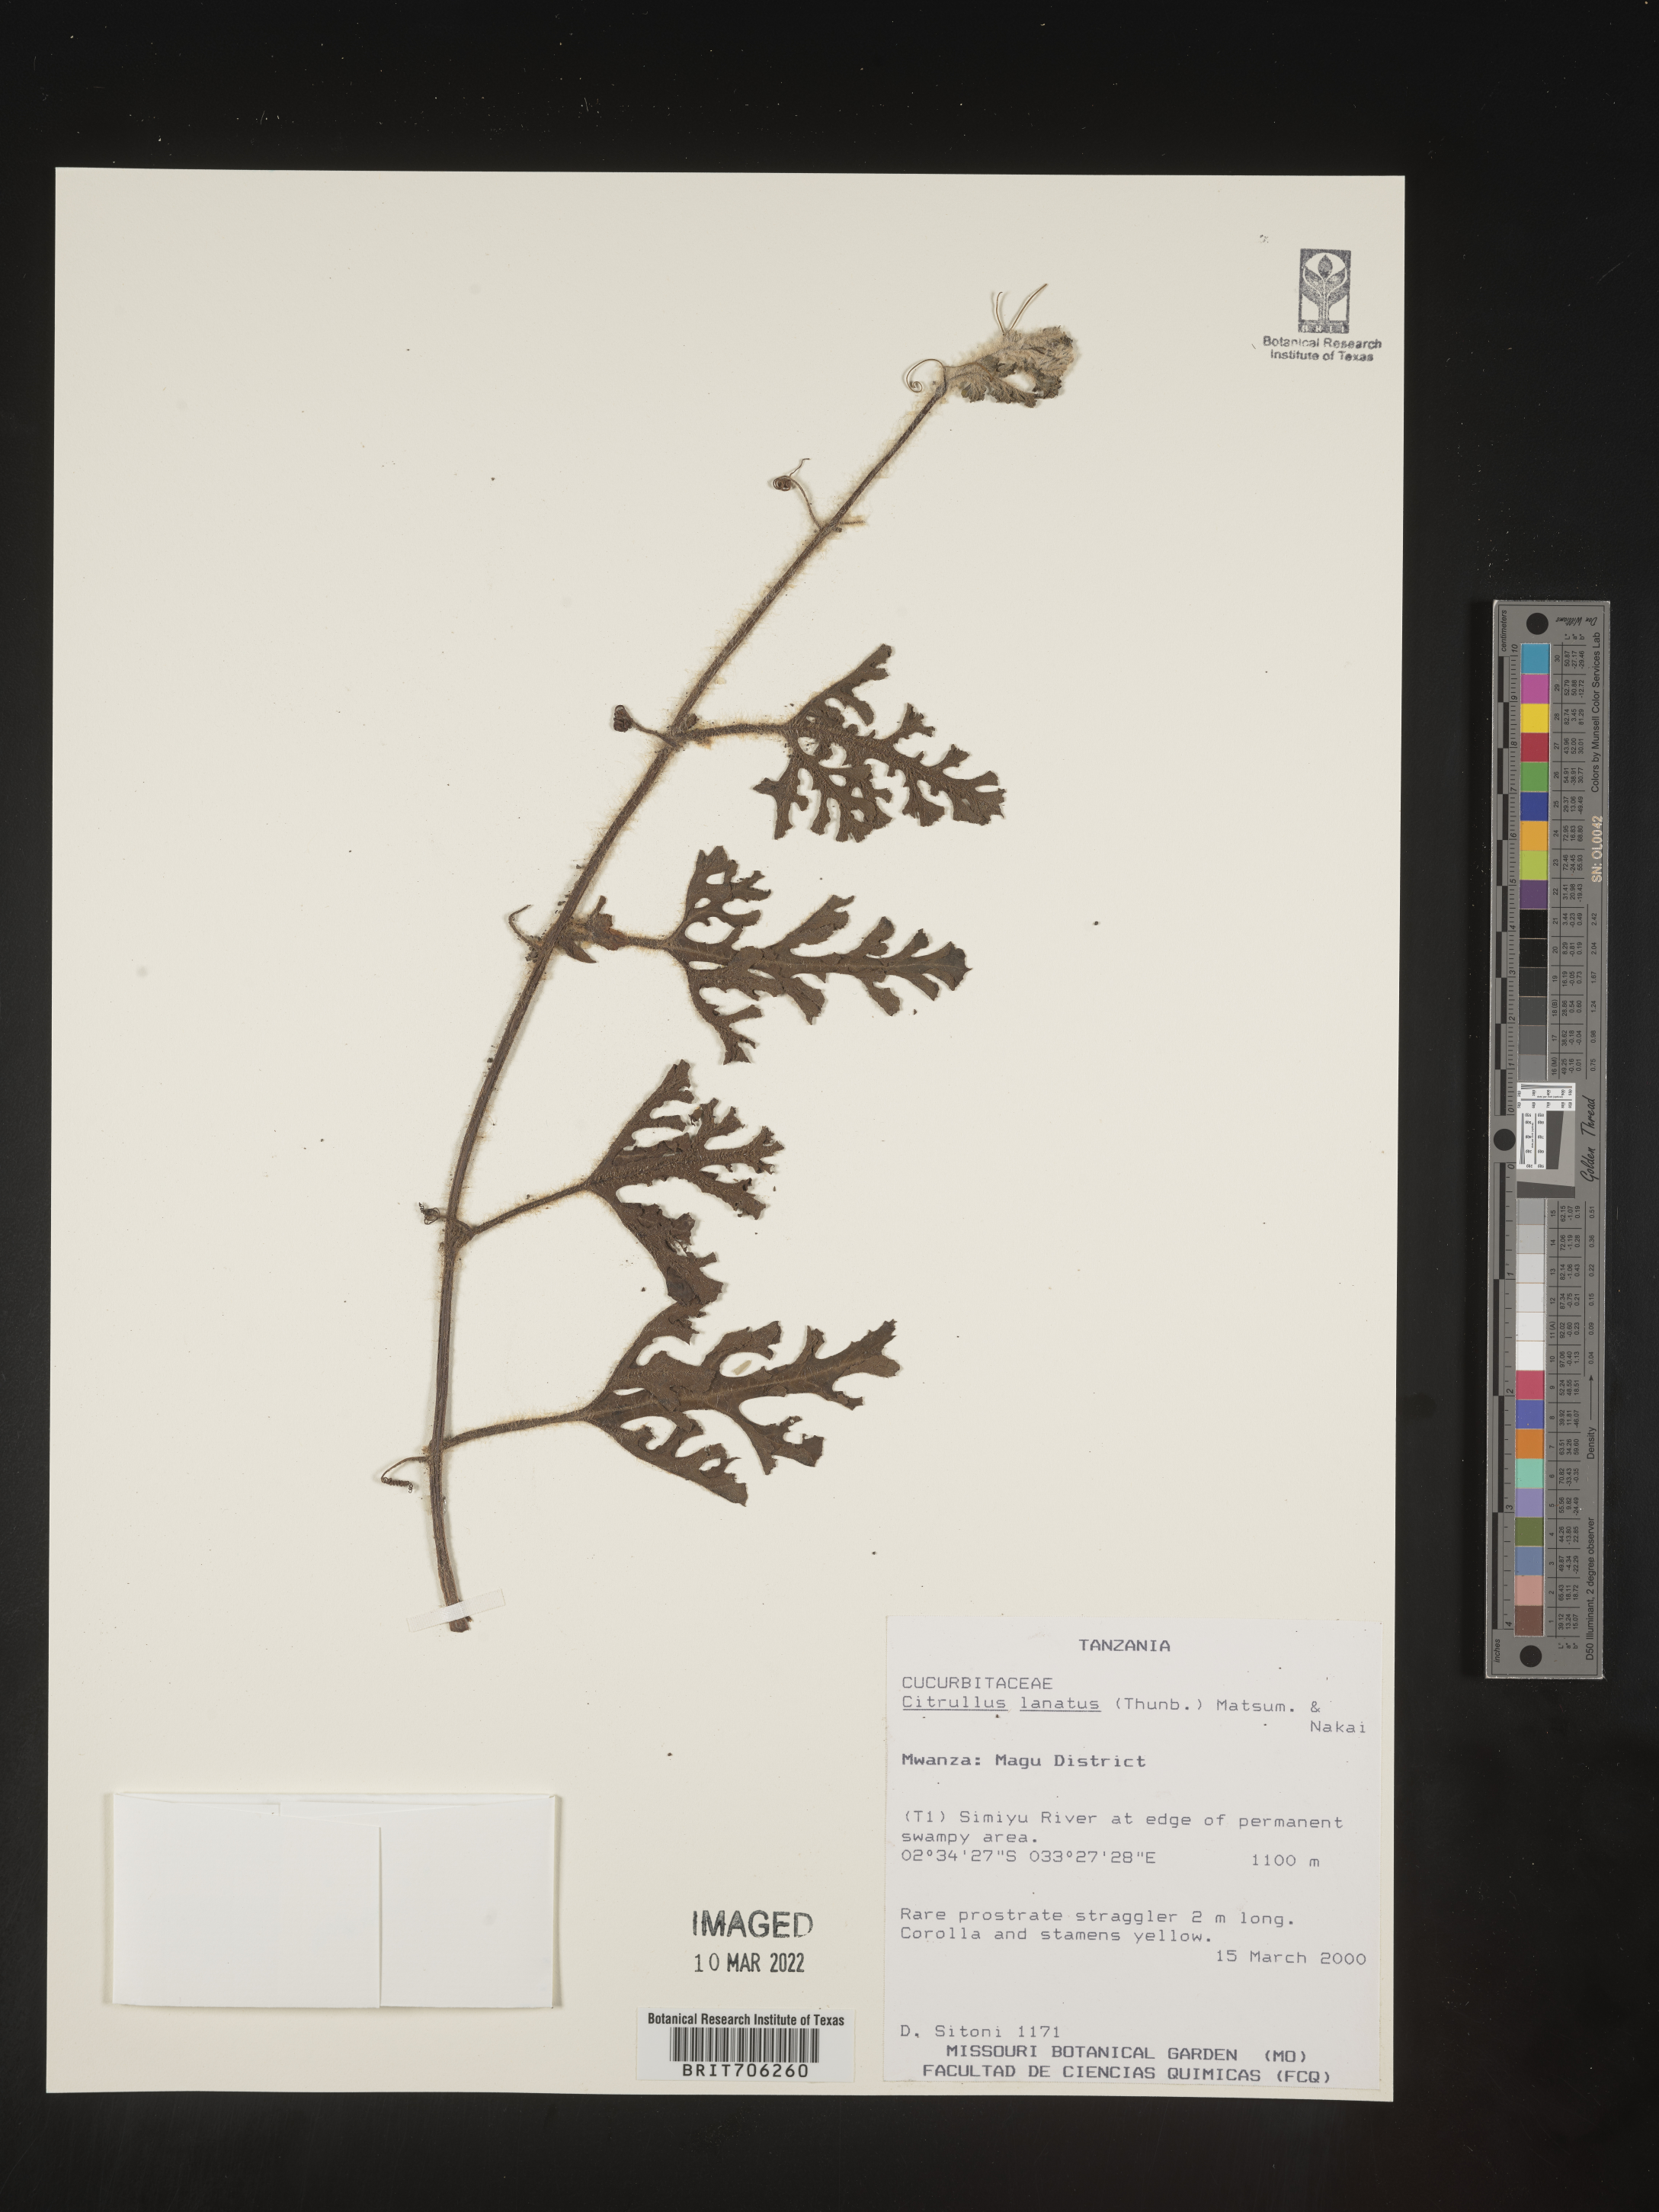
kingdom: Plantae
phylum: Tracheophyta
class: Magnoliopsida
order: Cucurbitales
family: Cucurbitaceae
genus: Citrullus
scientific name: Citrullus
